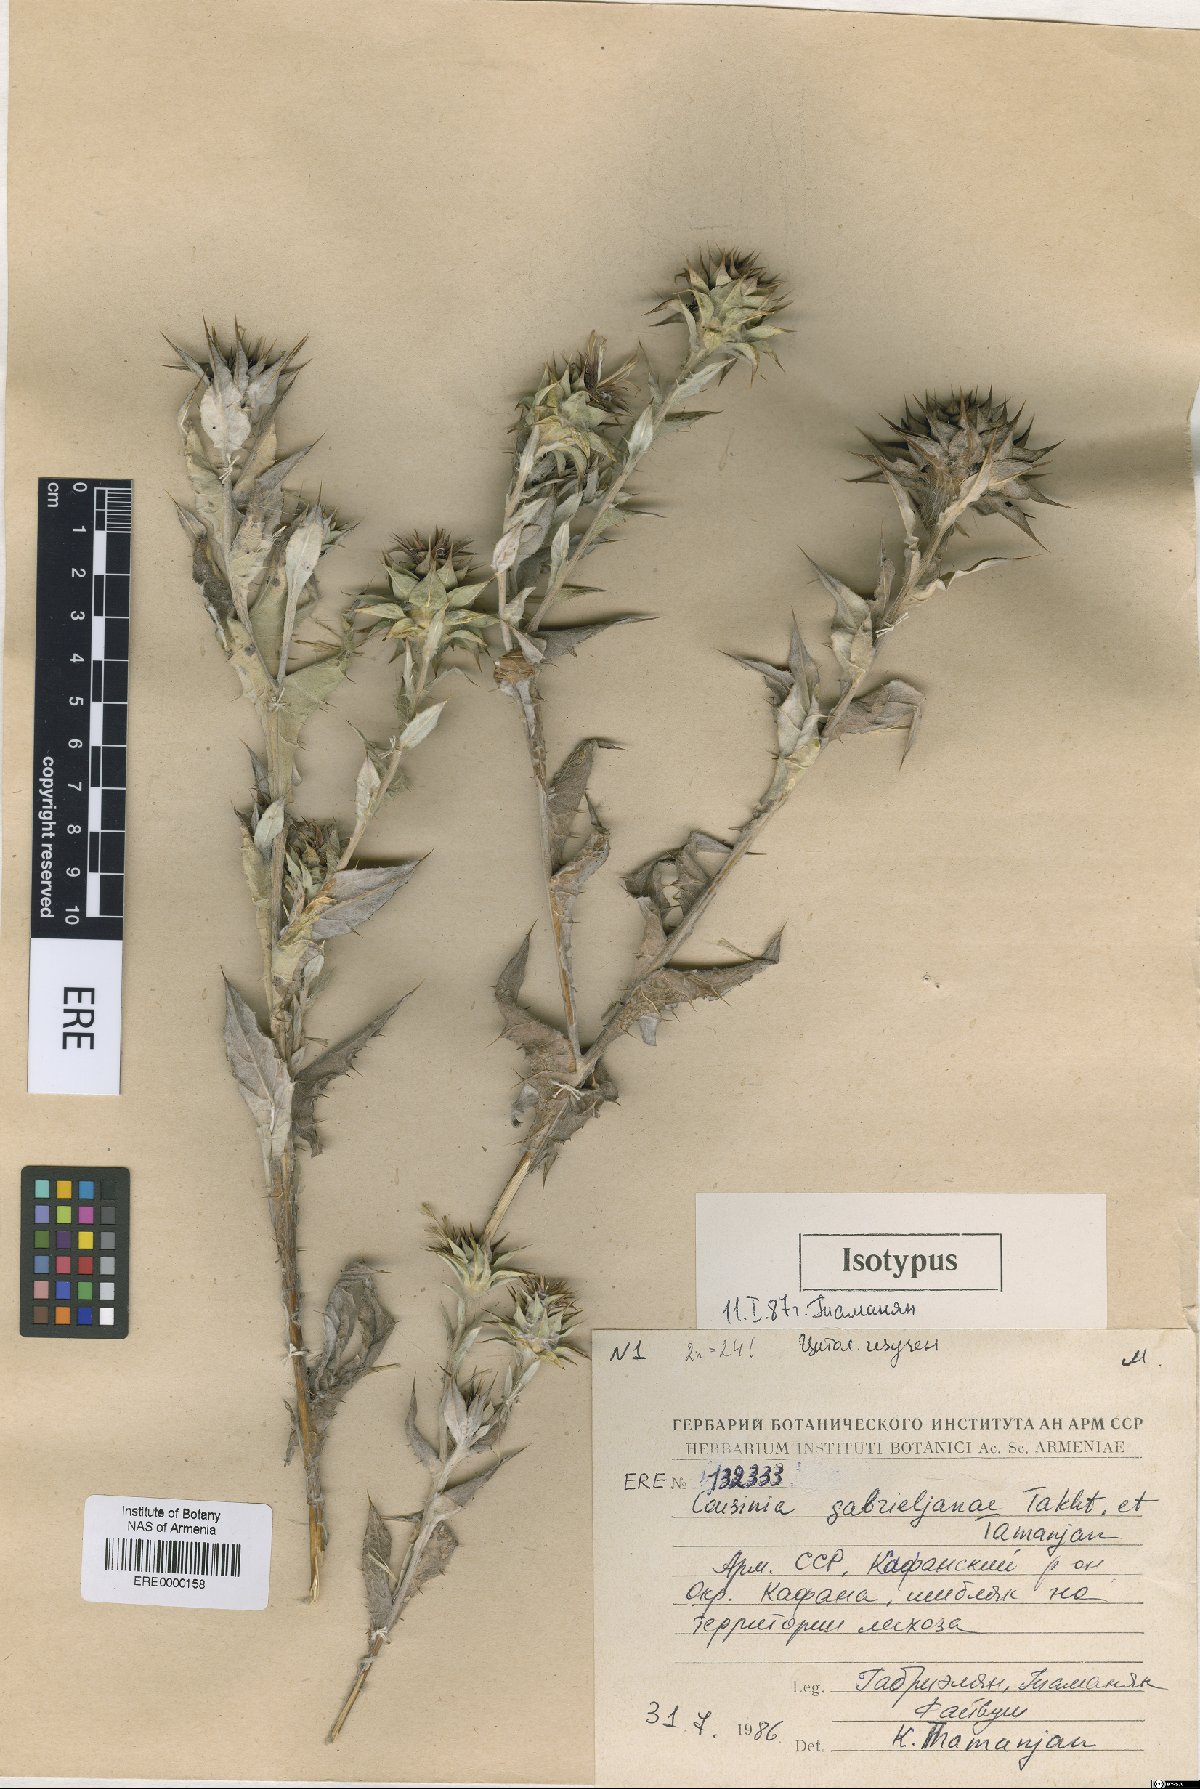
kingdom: Plantae
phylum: Tracheophyta
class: Magnoliopsida
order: Asterales
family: Asteraceae
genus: Cousinia
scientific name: Cousinia macrocephala
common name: Macrocephalous cousinia
